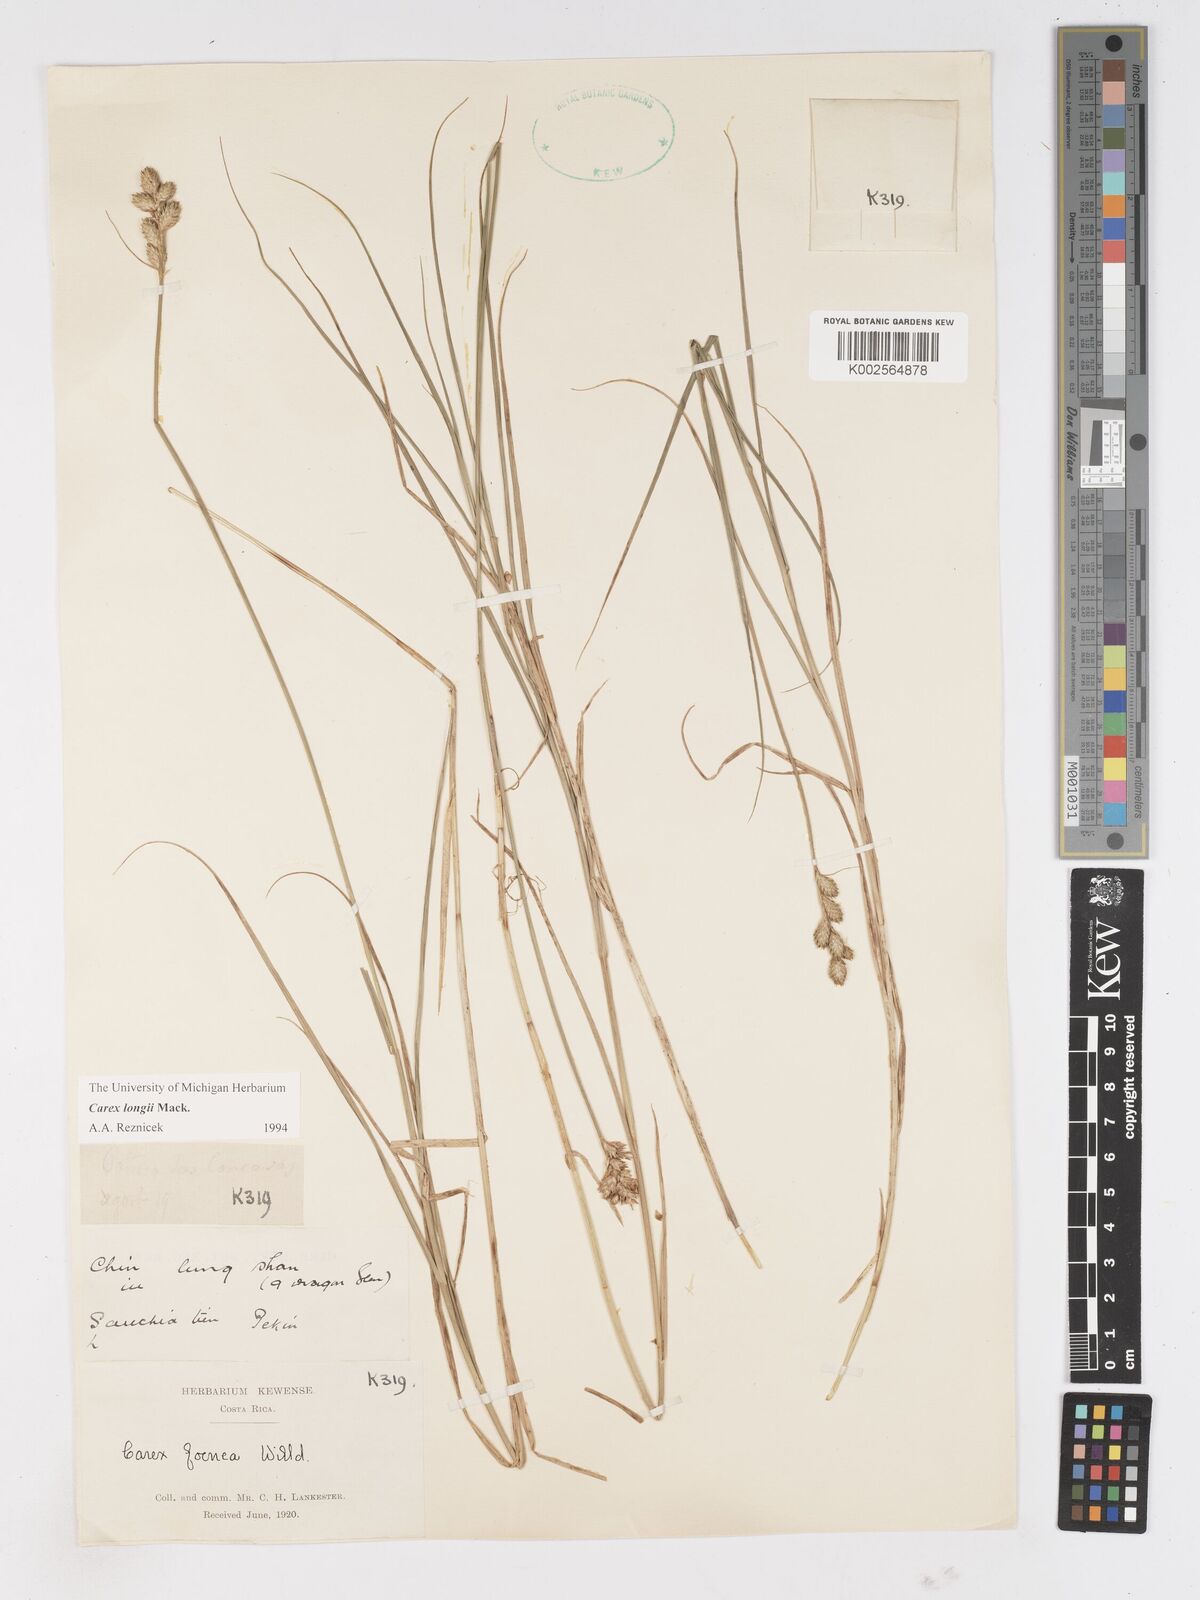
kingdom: Plantae
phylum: Tracheophyta
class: Liliopsida
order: Poales
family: Cyperaceae
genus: Carex
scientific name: Carex longii
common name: Long's sedge
